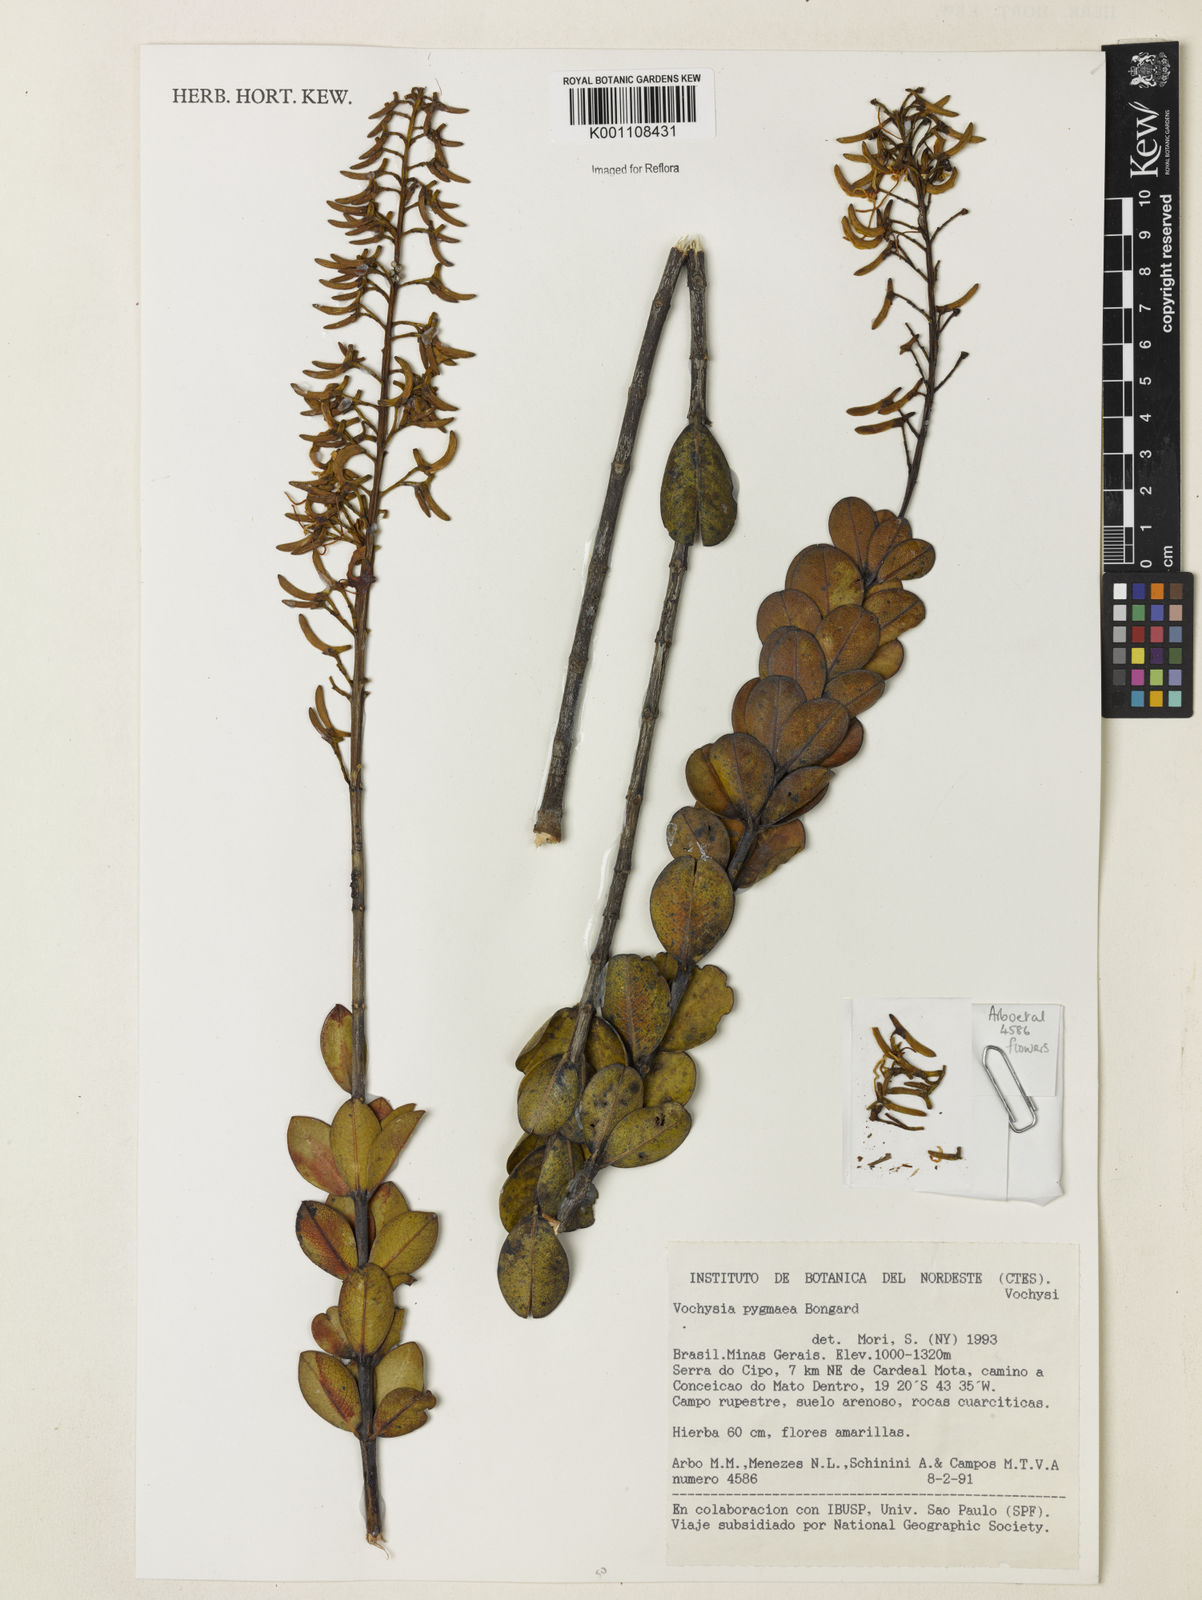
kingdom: Plantae
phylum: Tracheophyta
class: Magnoliopsida
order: Myrtales
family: Vochysiaceae
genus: Vochysia
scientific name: Vochysia pygmaea
